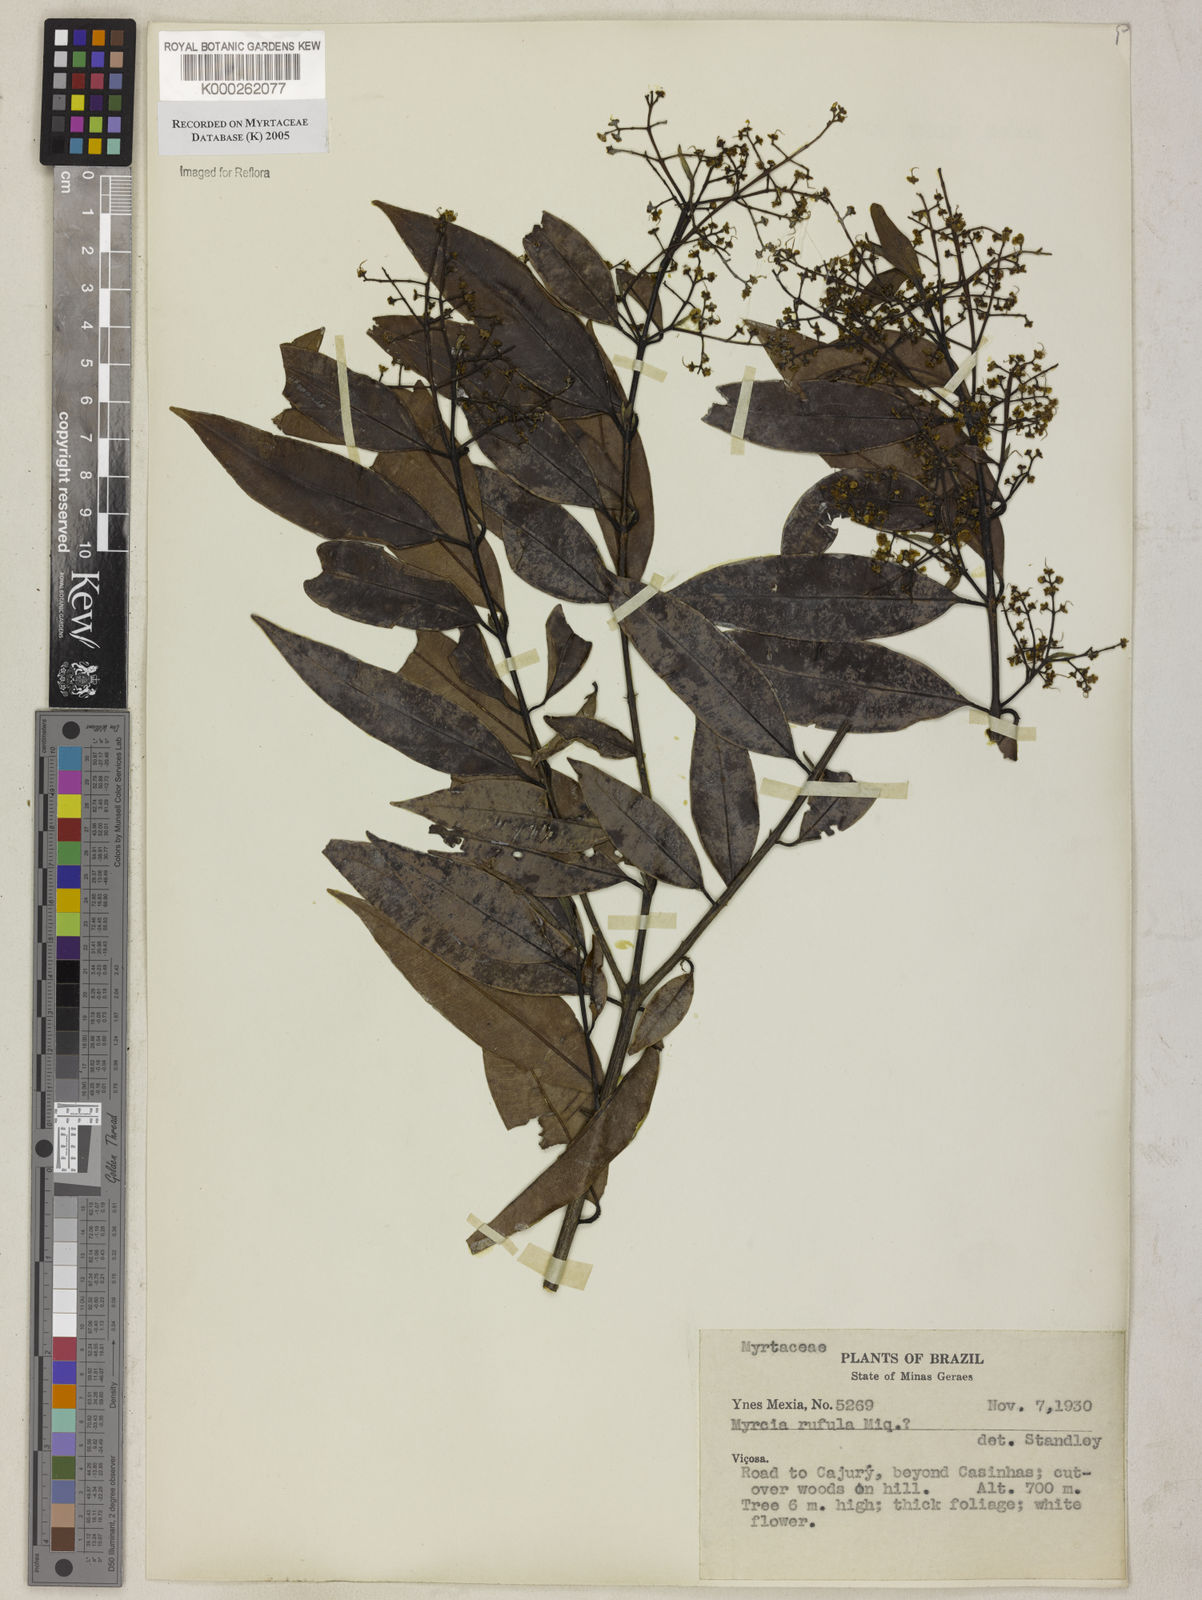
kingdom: Plantae
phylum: Tracheophyta
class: Magnoliopsida
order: Myrtales
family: Myrtaceae
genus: Myrcia
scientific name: Myrcia splendens
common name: Surinam cherry
